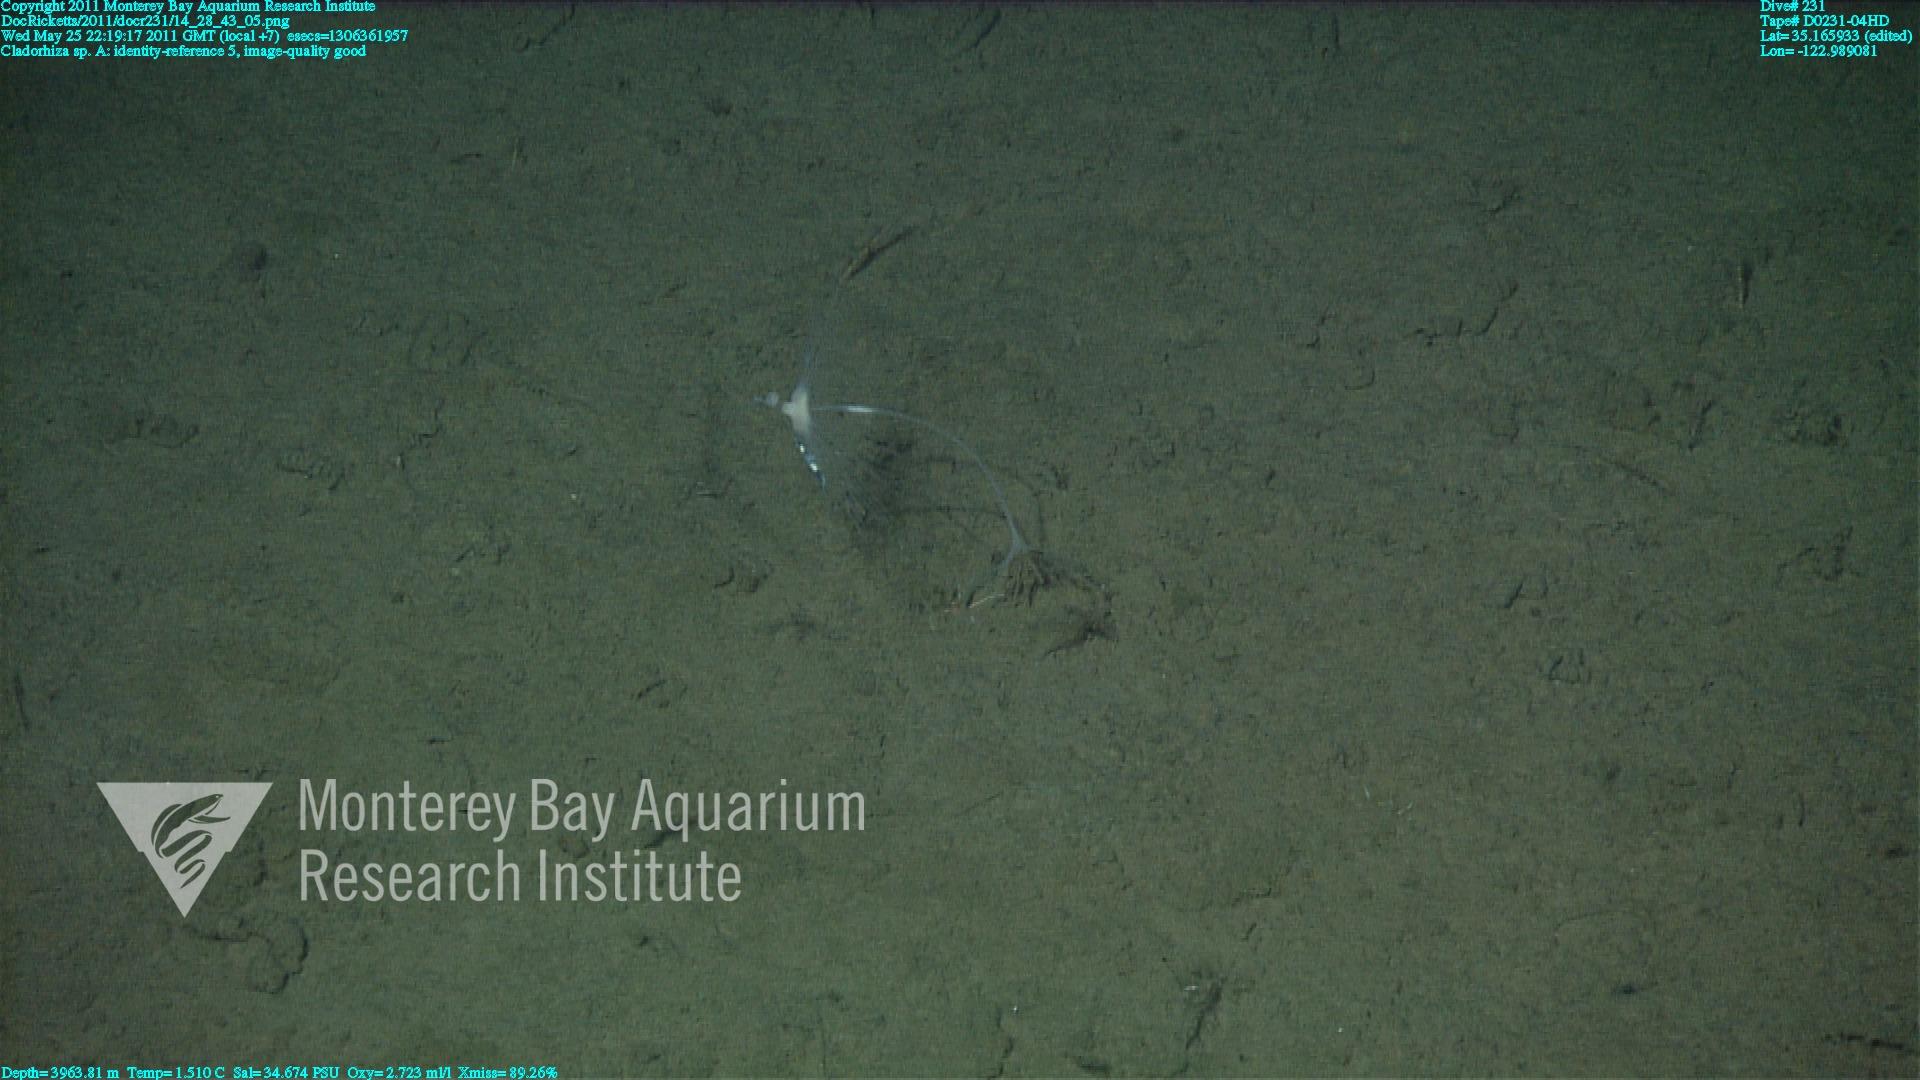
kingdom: Animalia
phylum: Porifera
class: Demospongiae
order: Poecilosclerida
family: Cladorhizidae
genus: Cladorhiza
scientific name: Cladorhiza
